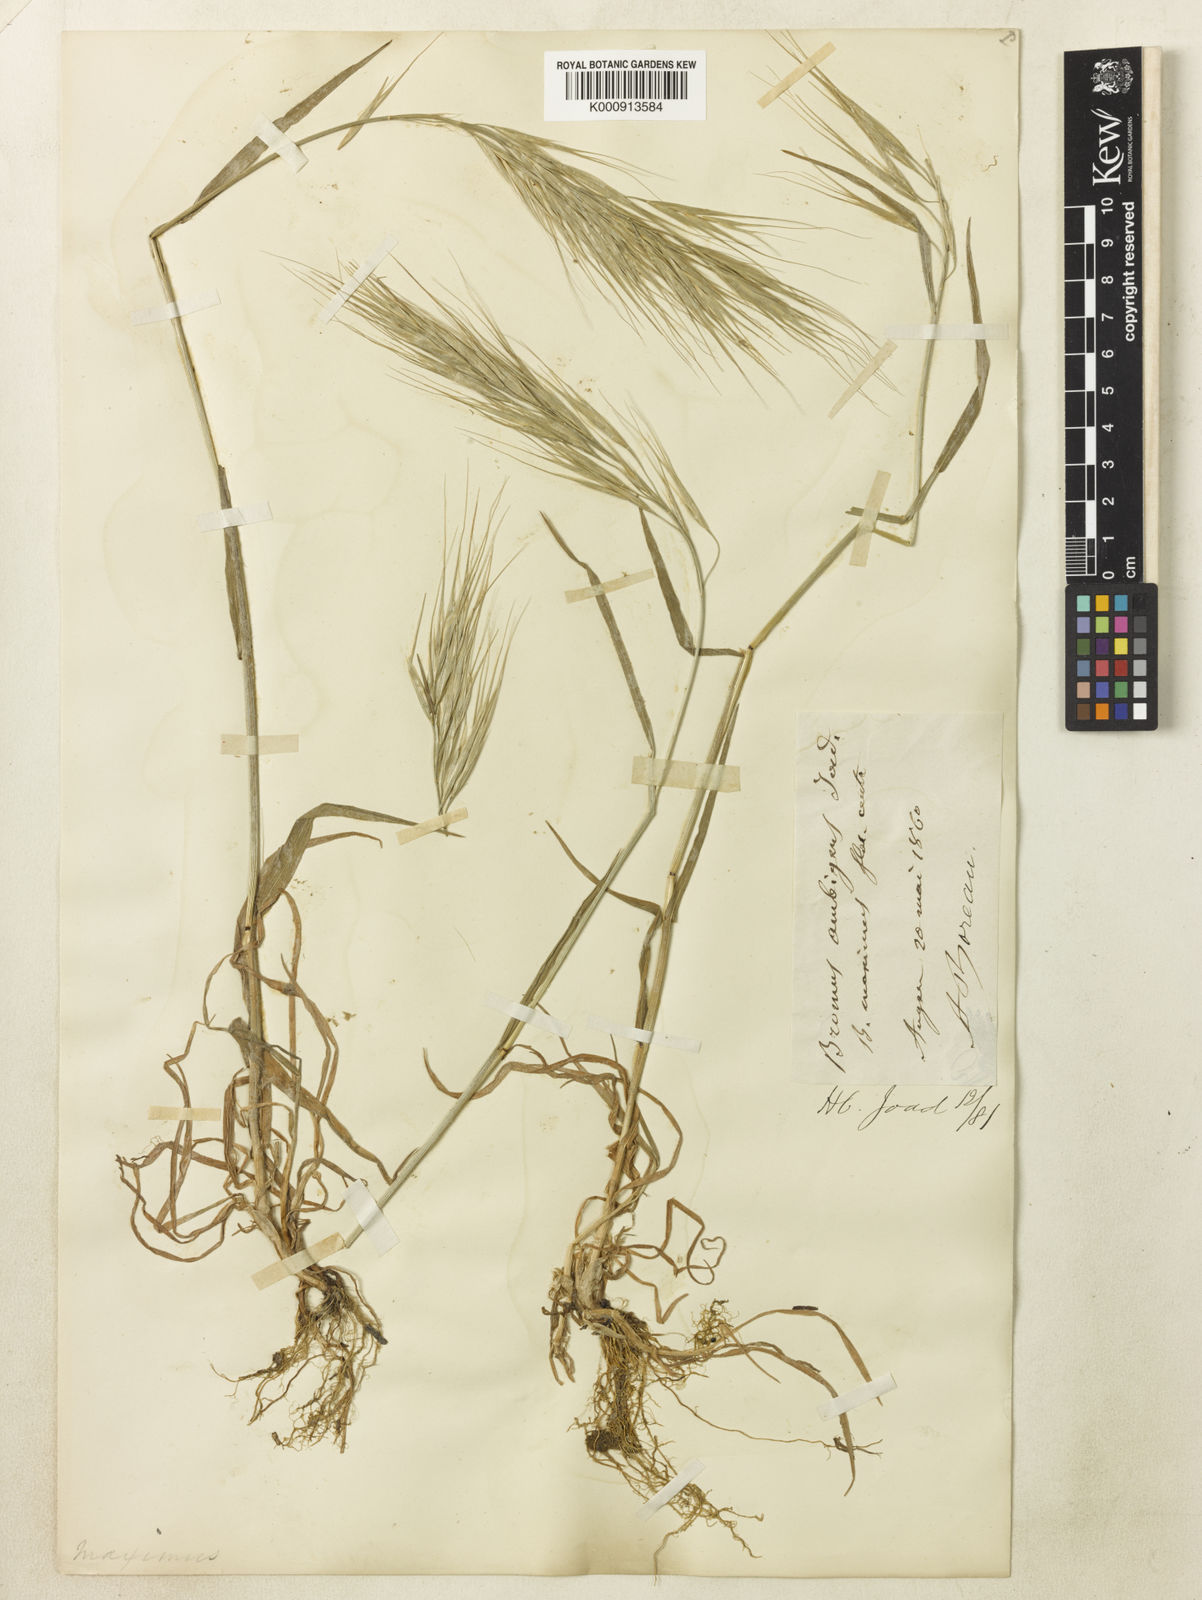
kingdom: Plantae
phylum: Tracheophyta
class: Liliopsida
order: Poales
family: Poaceae
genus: Bromus
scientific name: Bromus diandrus
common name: Ripgut brome
